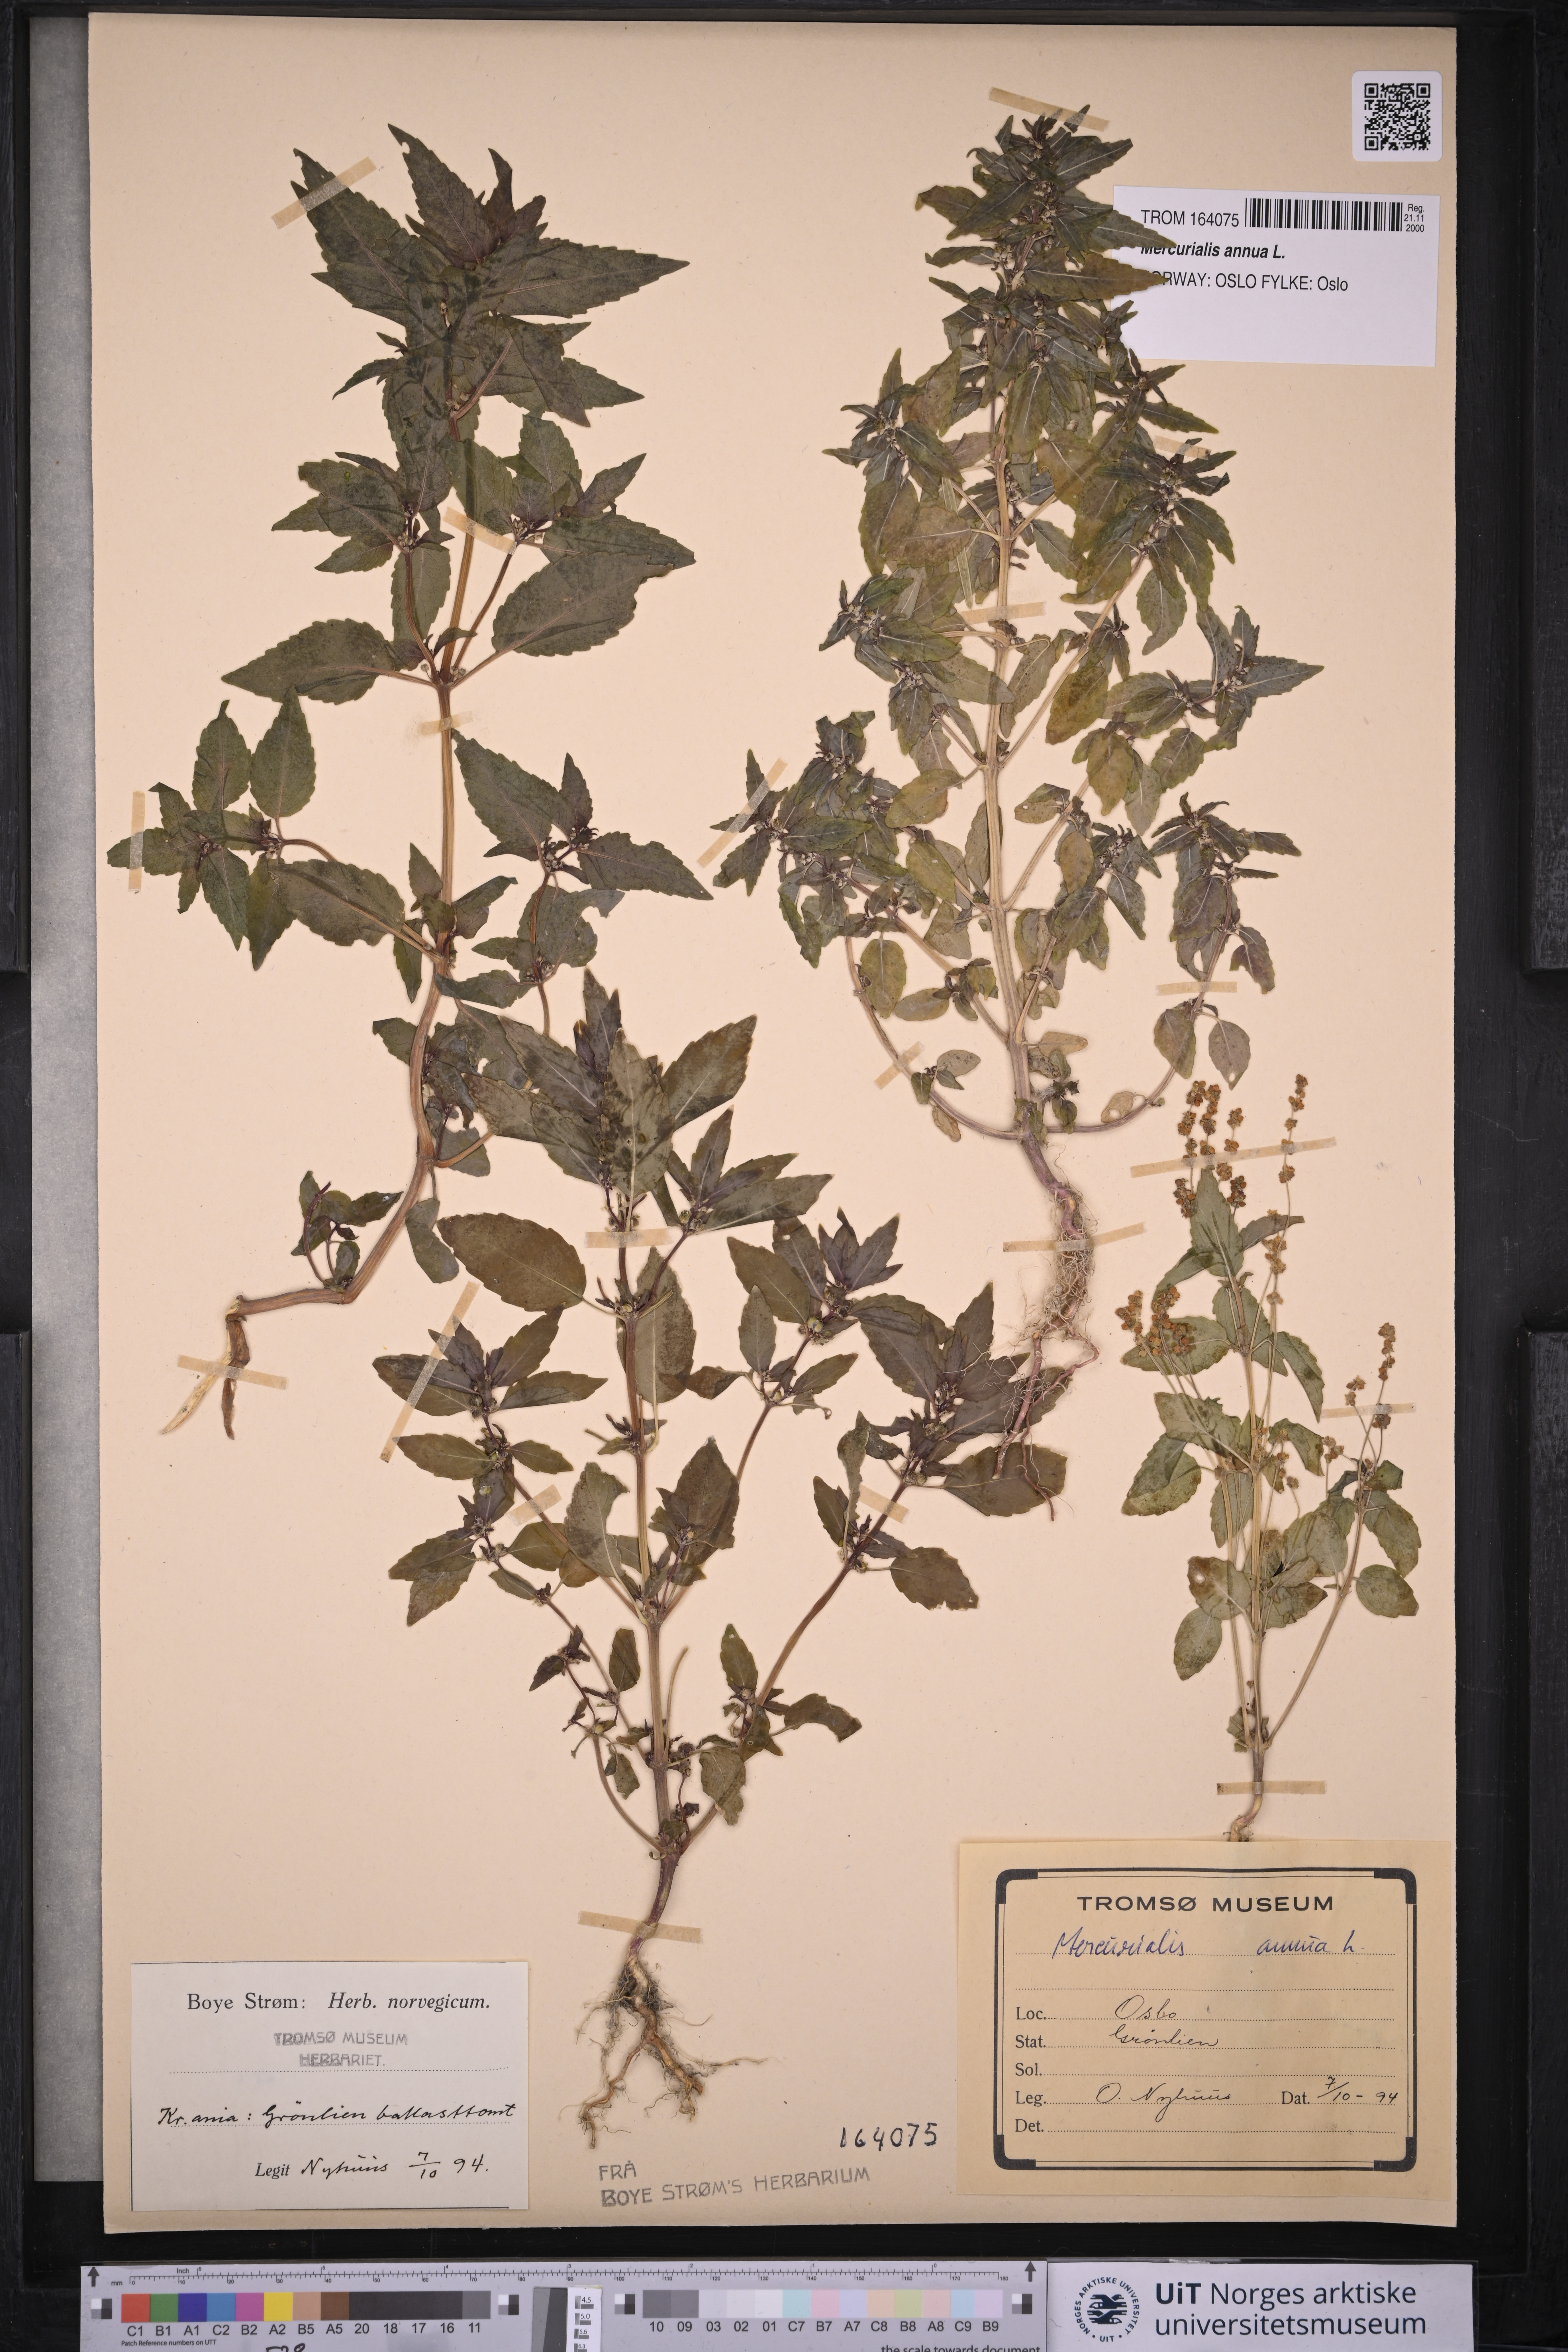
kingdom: Plantae
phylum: Tracheophyta
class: Magnoliopsida
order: Malpighiales
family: Euphorbiaceae
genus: Mercurialis
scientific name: Mercurialis annua
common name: Annual mercury
